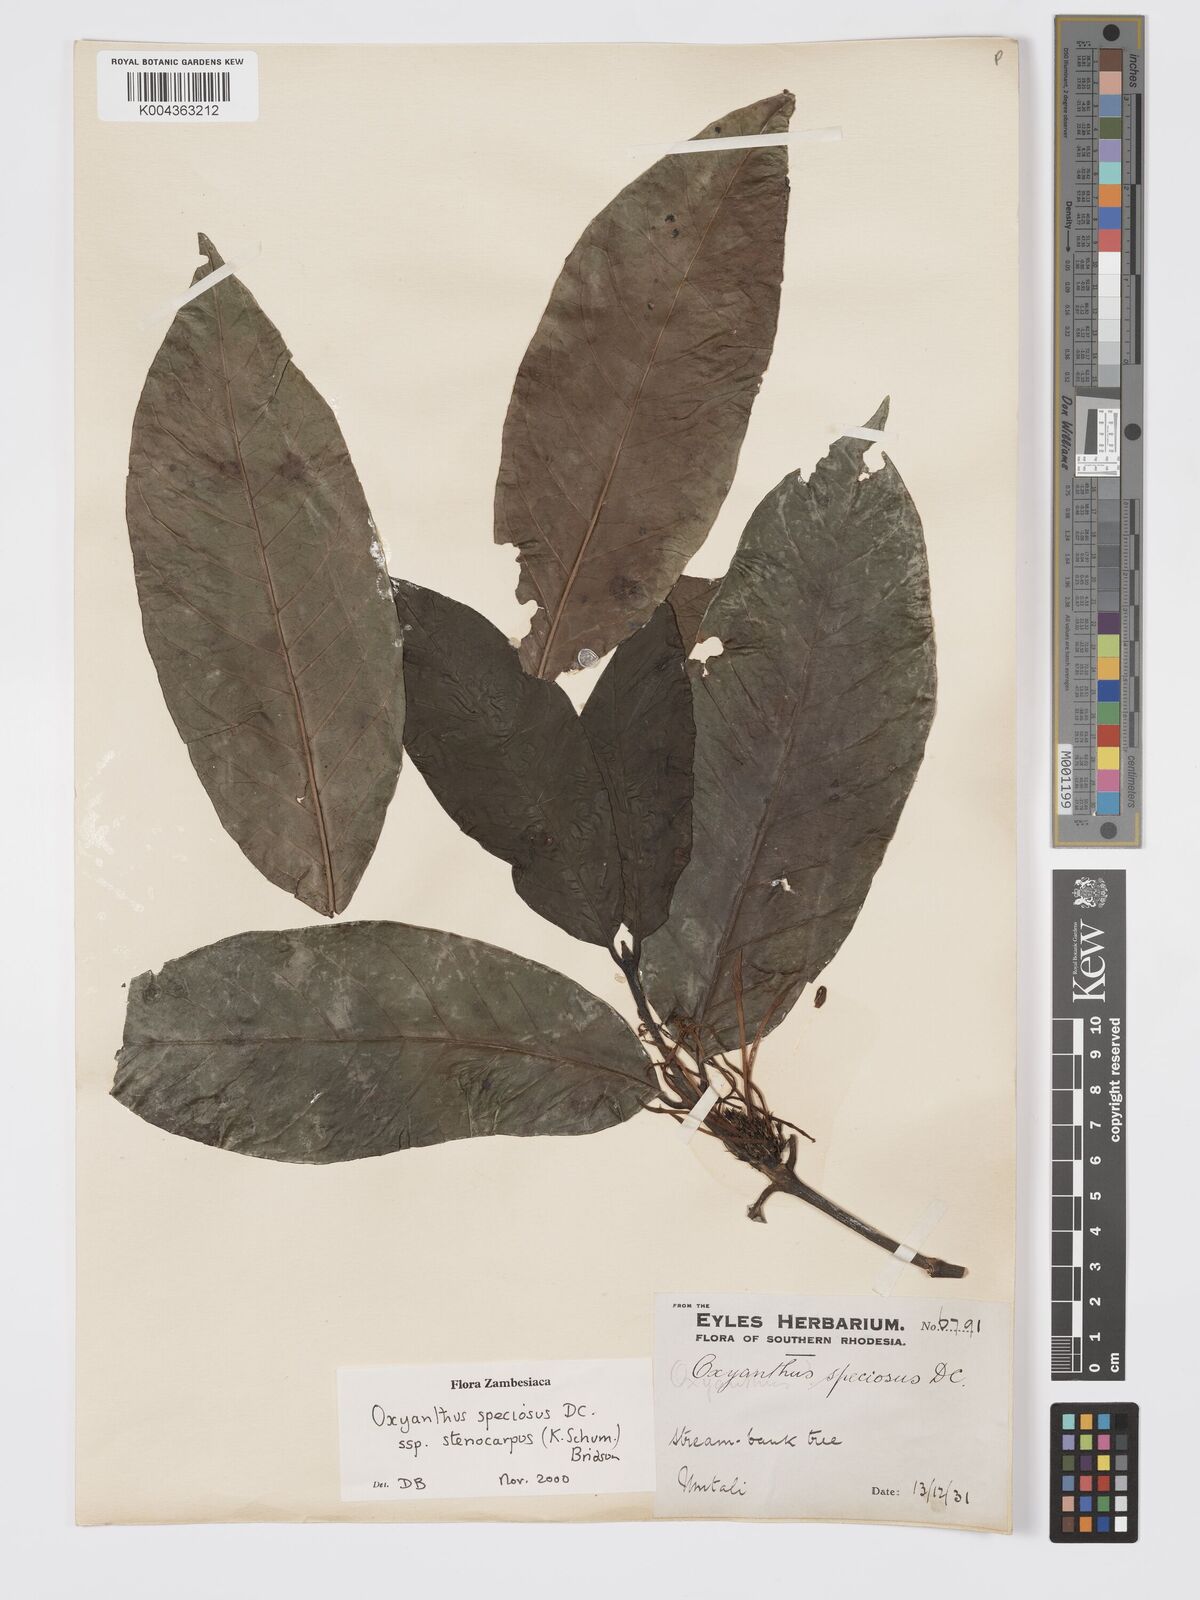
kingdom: Plantae
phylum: Tracheophyta
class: Magnoliopsida
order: Gentianales
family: Rubiaceae
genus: Oxyanthus
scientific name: Oxyanthus speciosus
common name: Whipstick loquat
